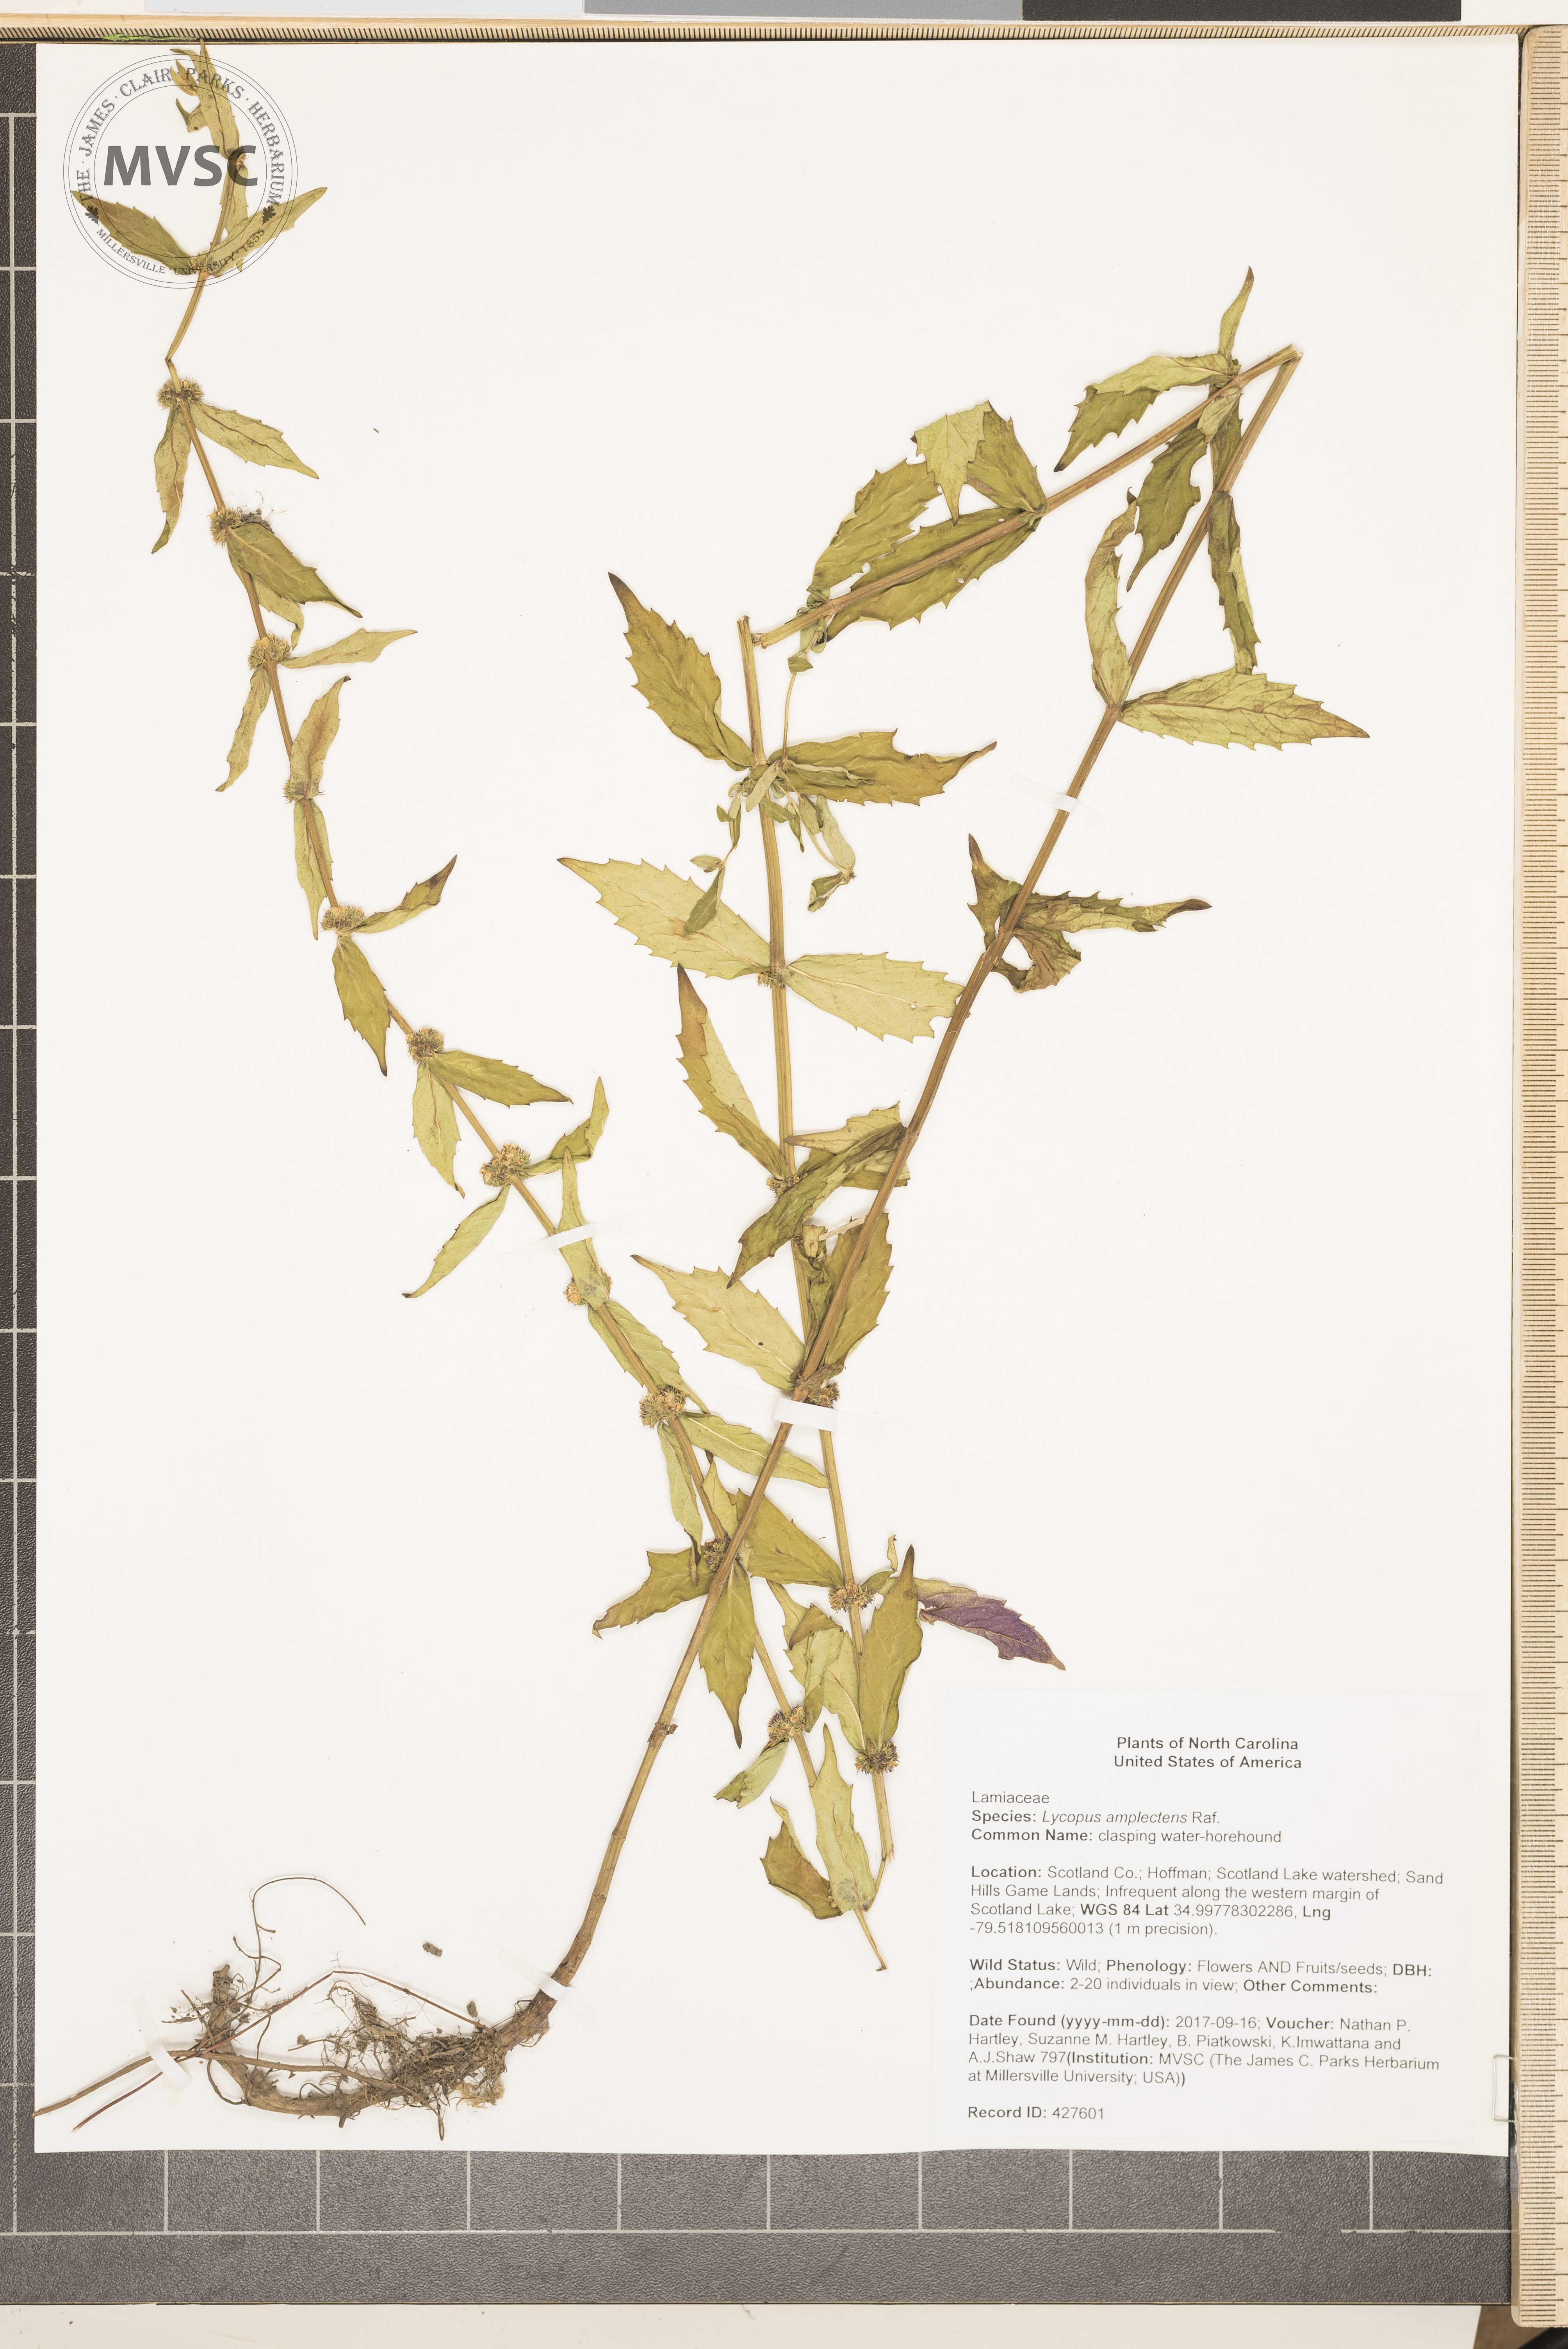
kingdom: Plantae
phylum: Tracheophyta
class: Magnoliopsida
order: Lamiales
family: Lamiaceae
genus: Lycopus
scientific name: Lycopus amplectens
